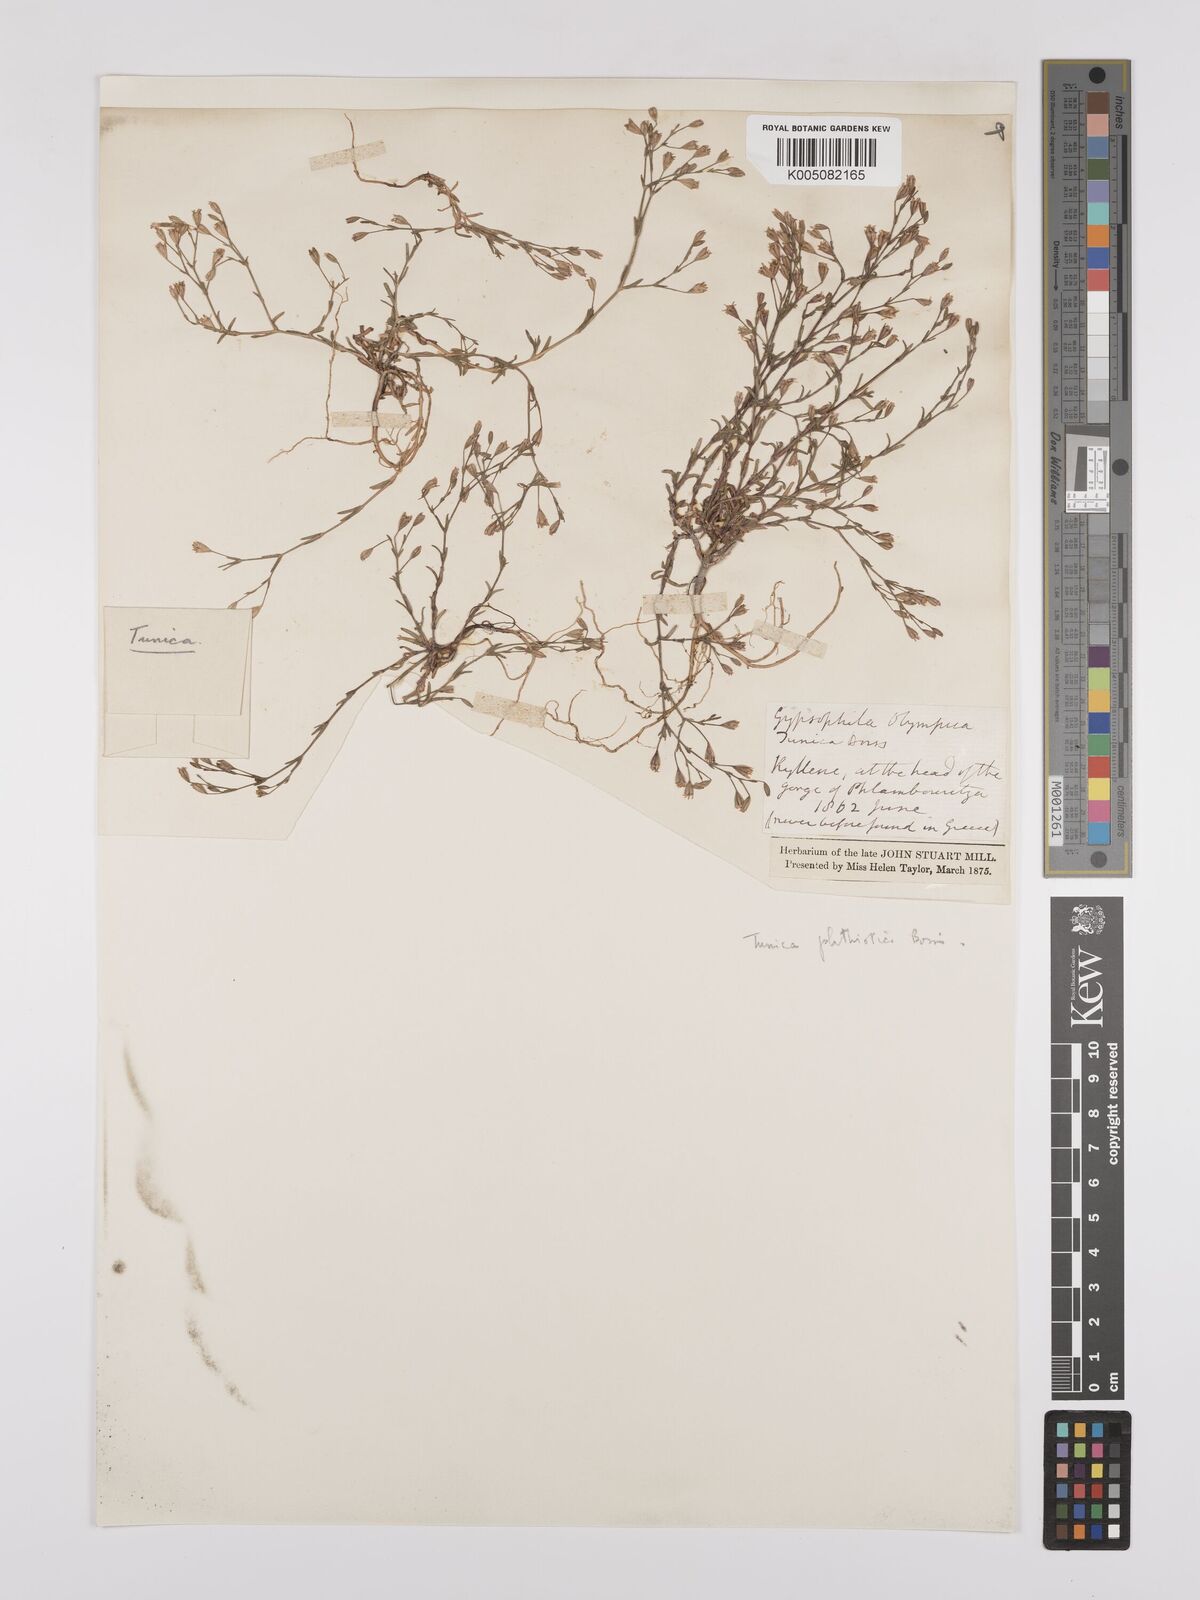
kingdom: Plantae
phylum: Tracheophyta
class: Magnoliopsida
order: Caryophyllales
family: Caryophyllaceae
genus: Petrorhagia
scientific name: Petrorhagia phthiotica
